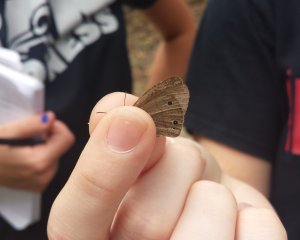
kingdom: Animalia
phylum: Arthropoda
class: Insecta
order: Lepidoptera
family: Nymphalidae
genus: Hermeuptychia
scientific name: Hermeuptychia hermes
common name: Carolina Satyr
